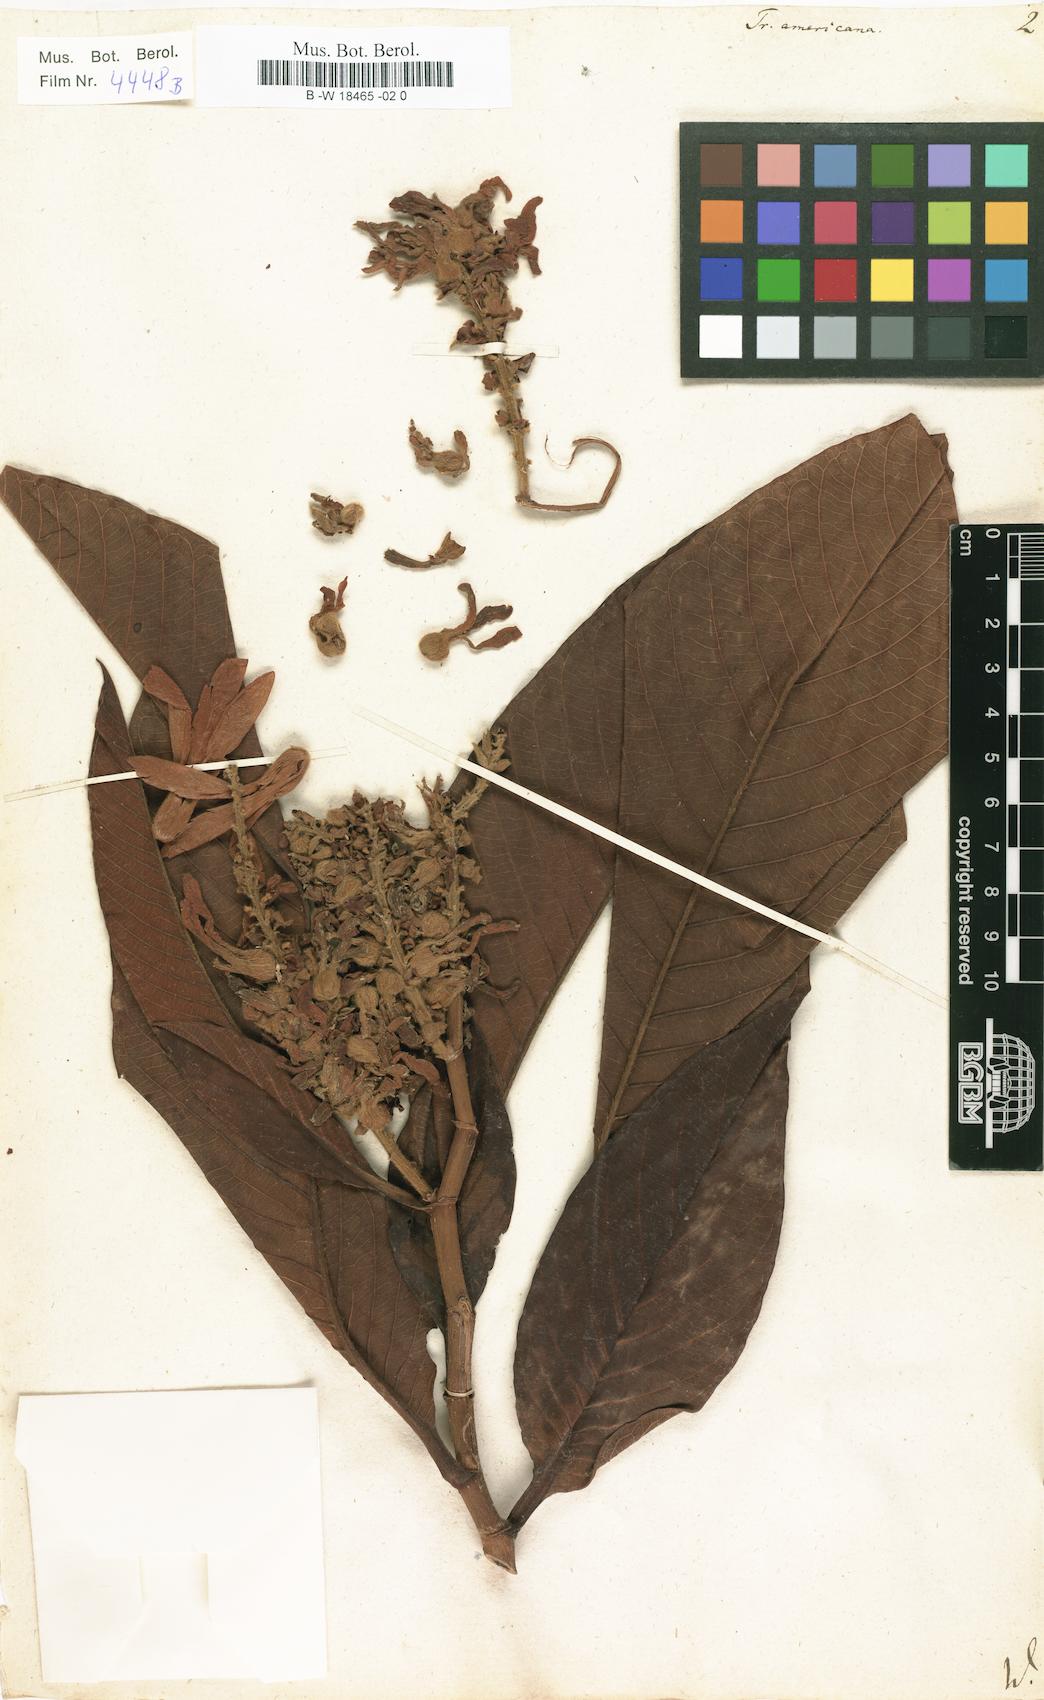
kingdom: Plantae
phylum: Tracheophyta
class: Magnoliopsida
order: Caryophyllales
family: Polygonaceae
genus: Triplaris
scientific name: Triplaris americana
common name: Ant-tree
